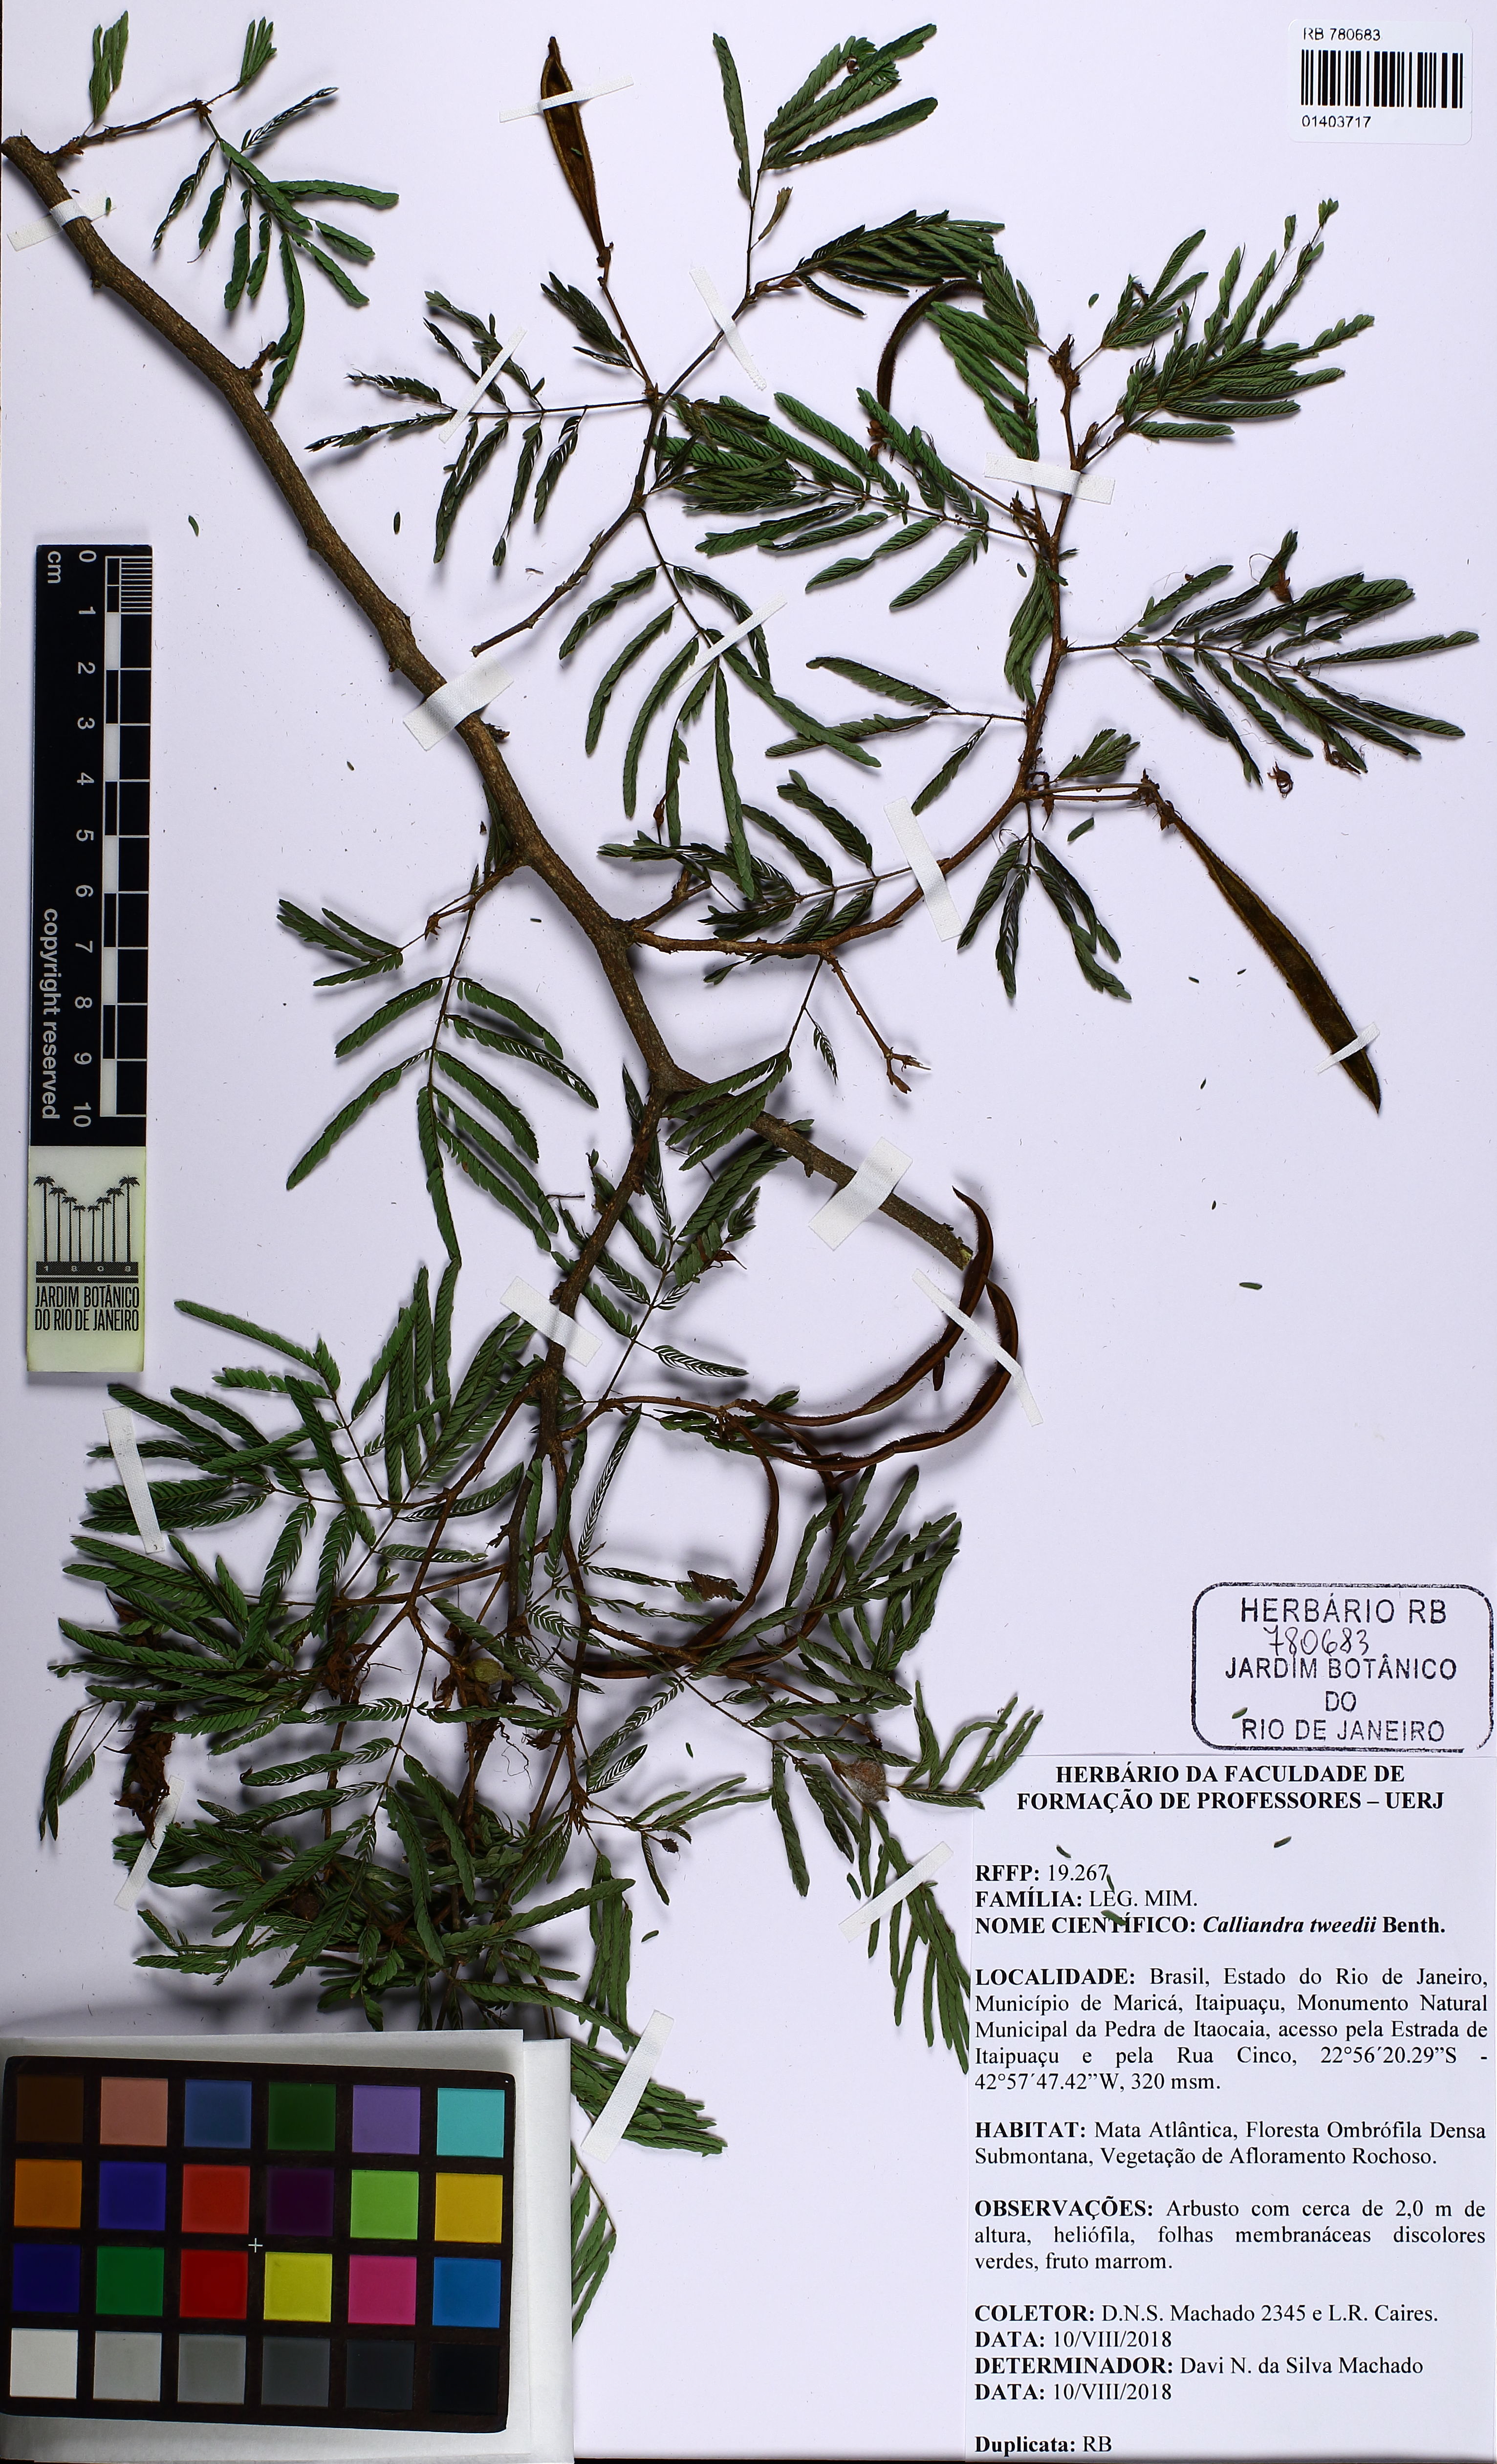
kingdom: Plantae
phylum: Tracheophyta
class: Magnoliopsida
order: Fabales
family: Fabaceae
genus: Calliandra
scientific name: Calliandra tweedii
